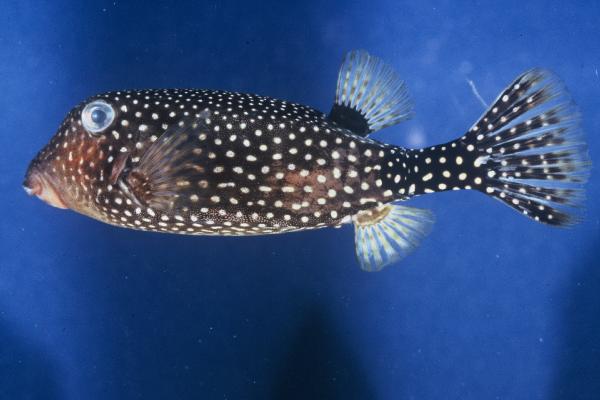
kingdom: Animalia
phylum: Chordata
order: Tetraodontiformes
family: Ostraciidae
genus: Ostracion
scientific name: Ostracion meleagris
